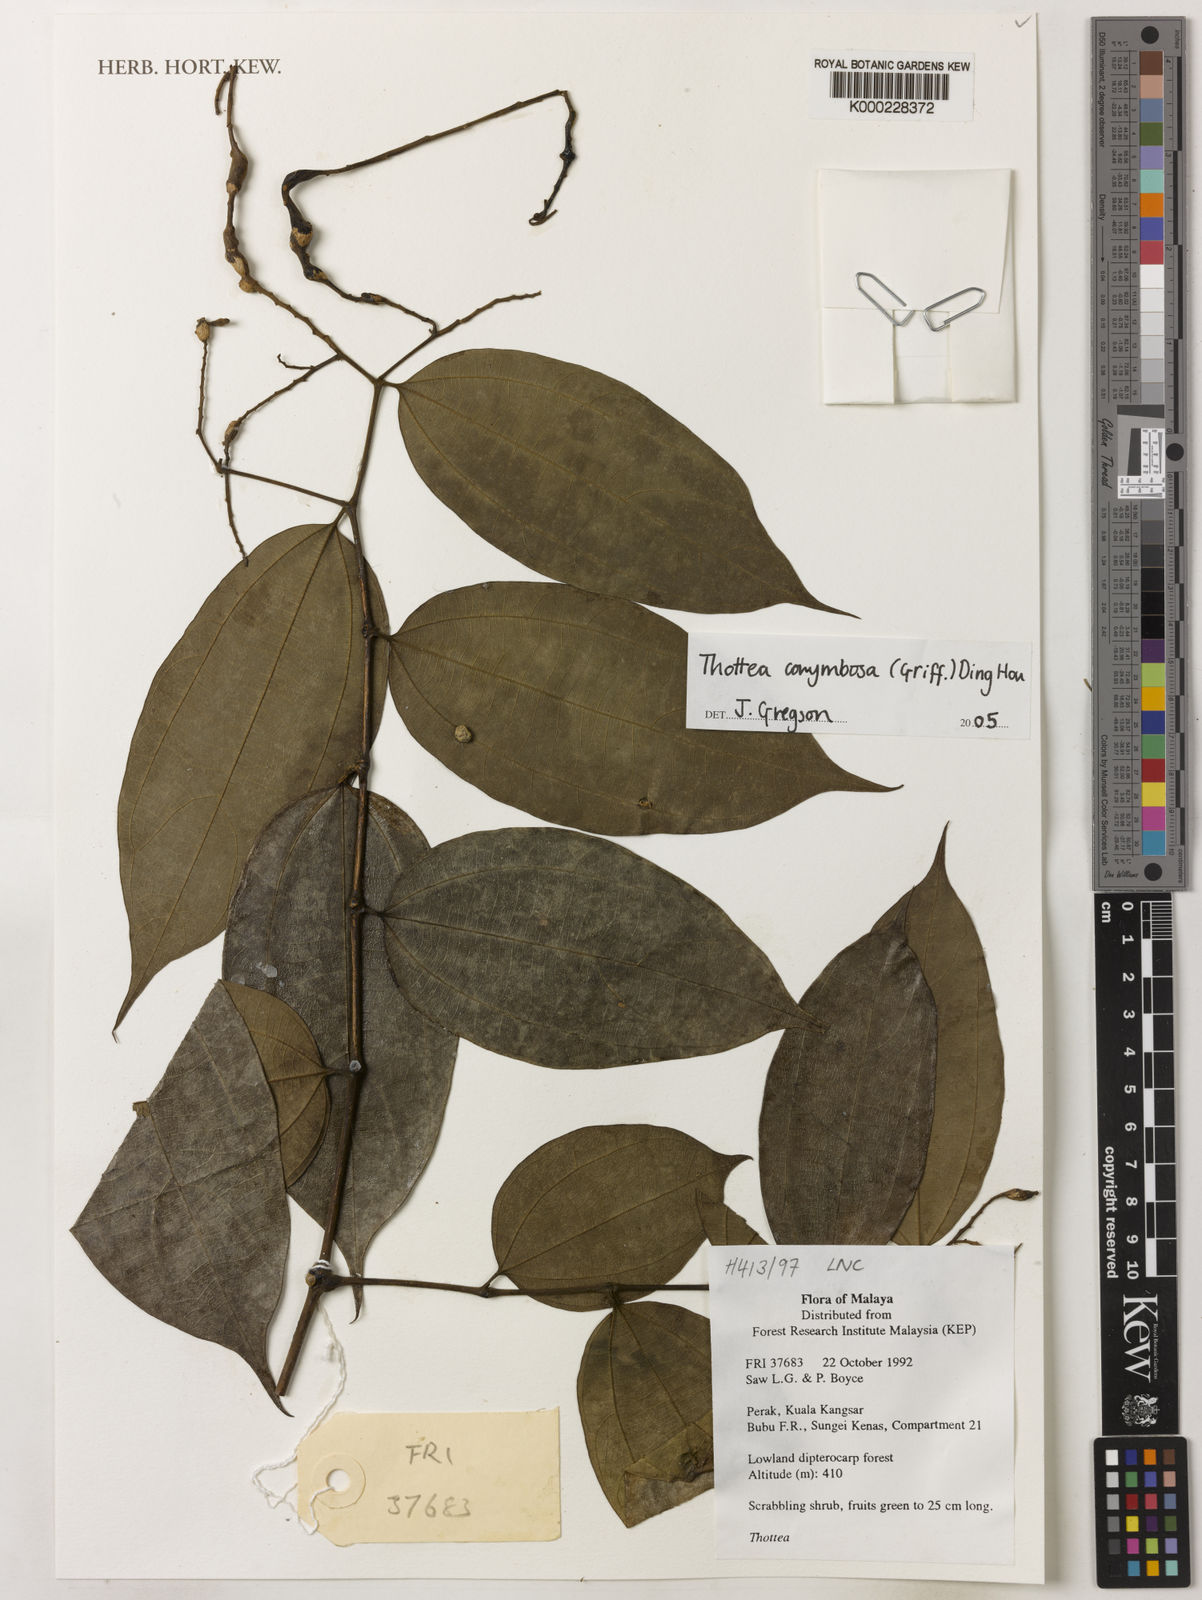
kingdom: Plantae
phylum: Tracheophyta
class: Magnoliopsida
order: Piperales
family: Aristolochiaceae
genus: Thottea
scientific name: Thottea
